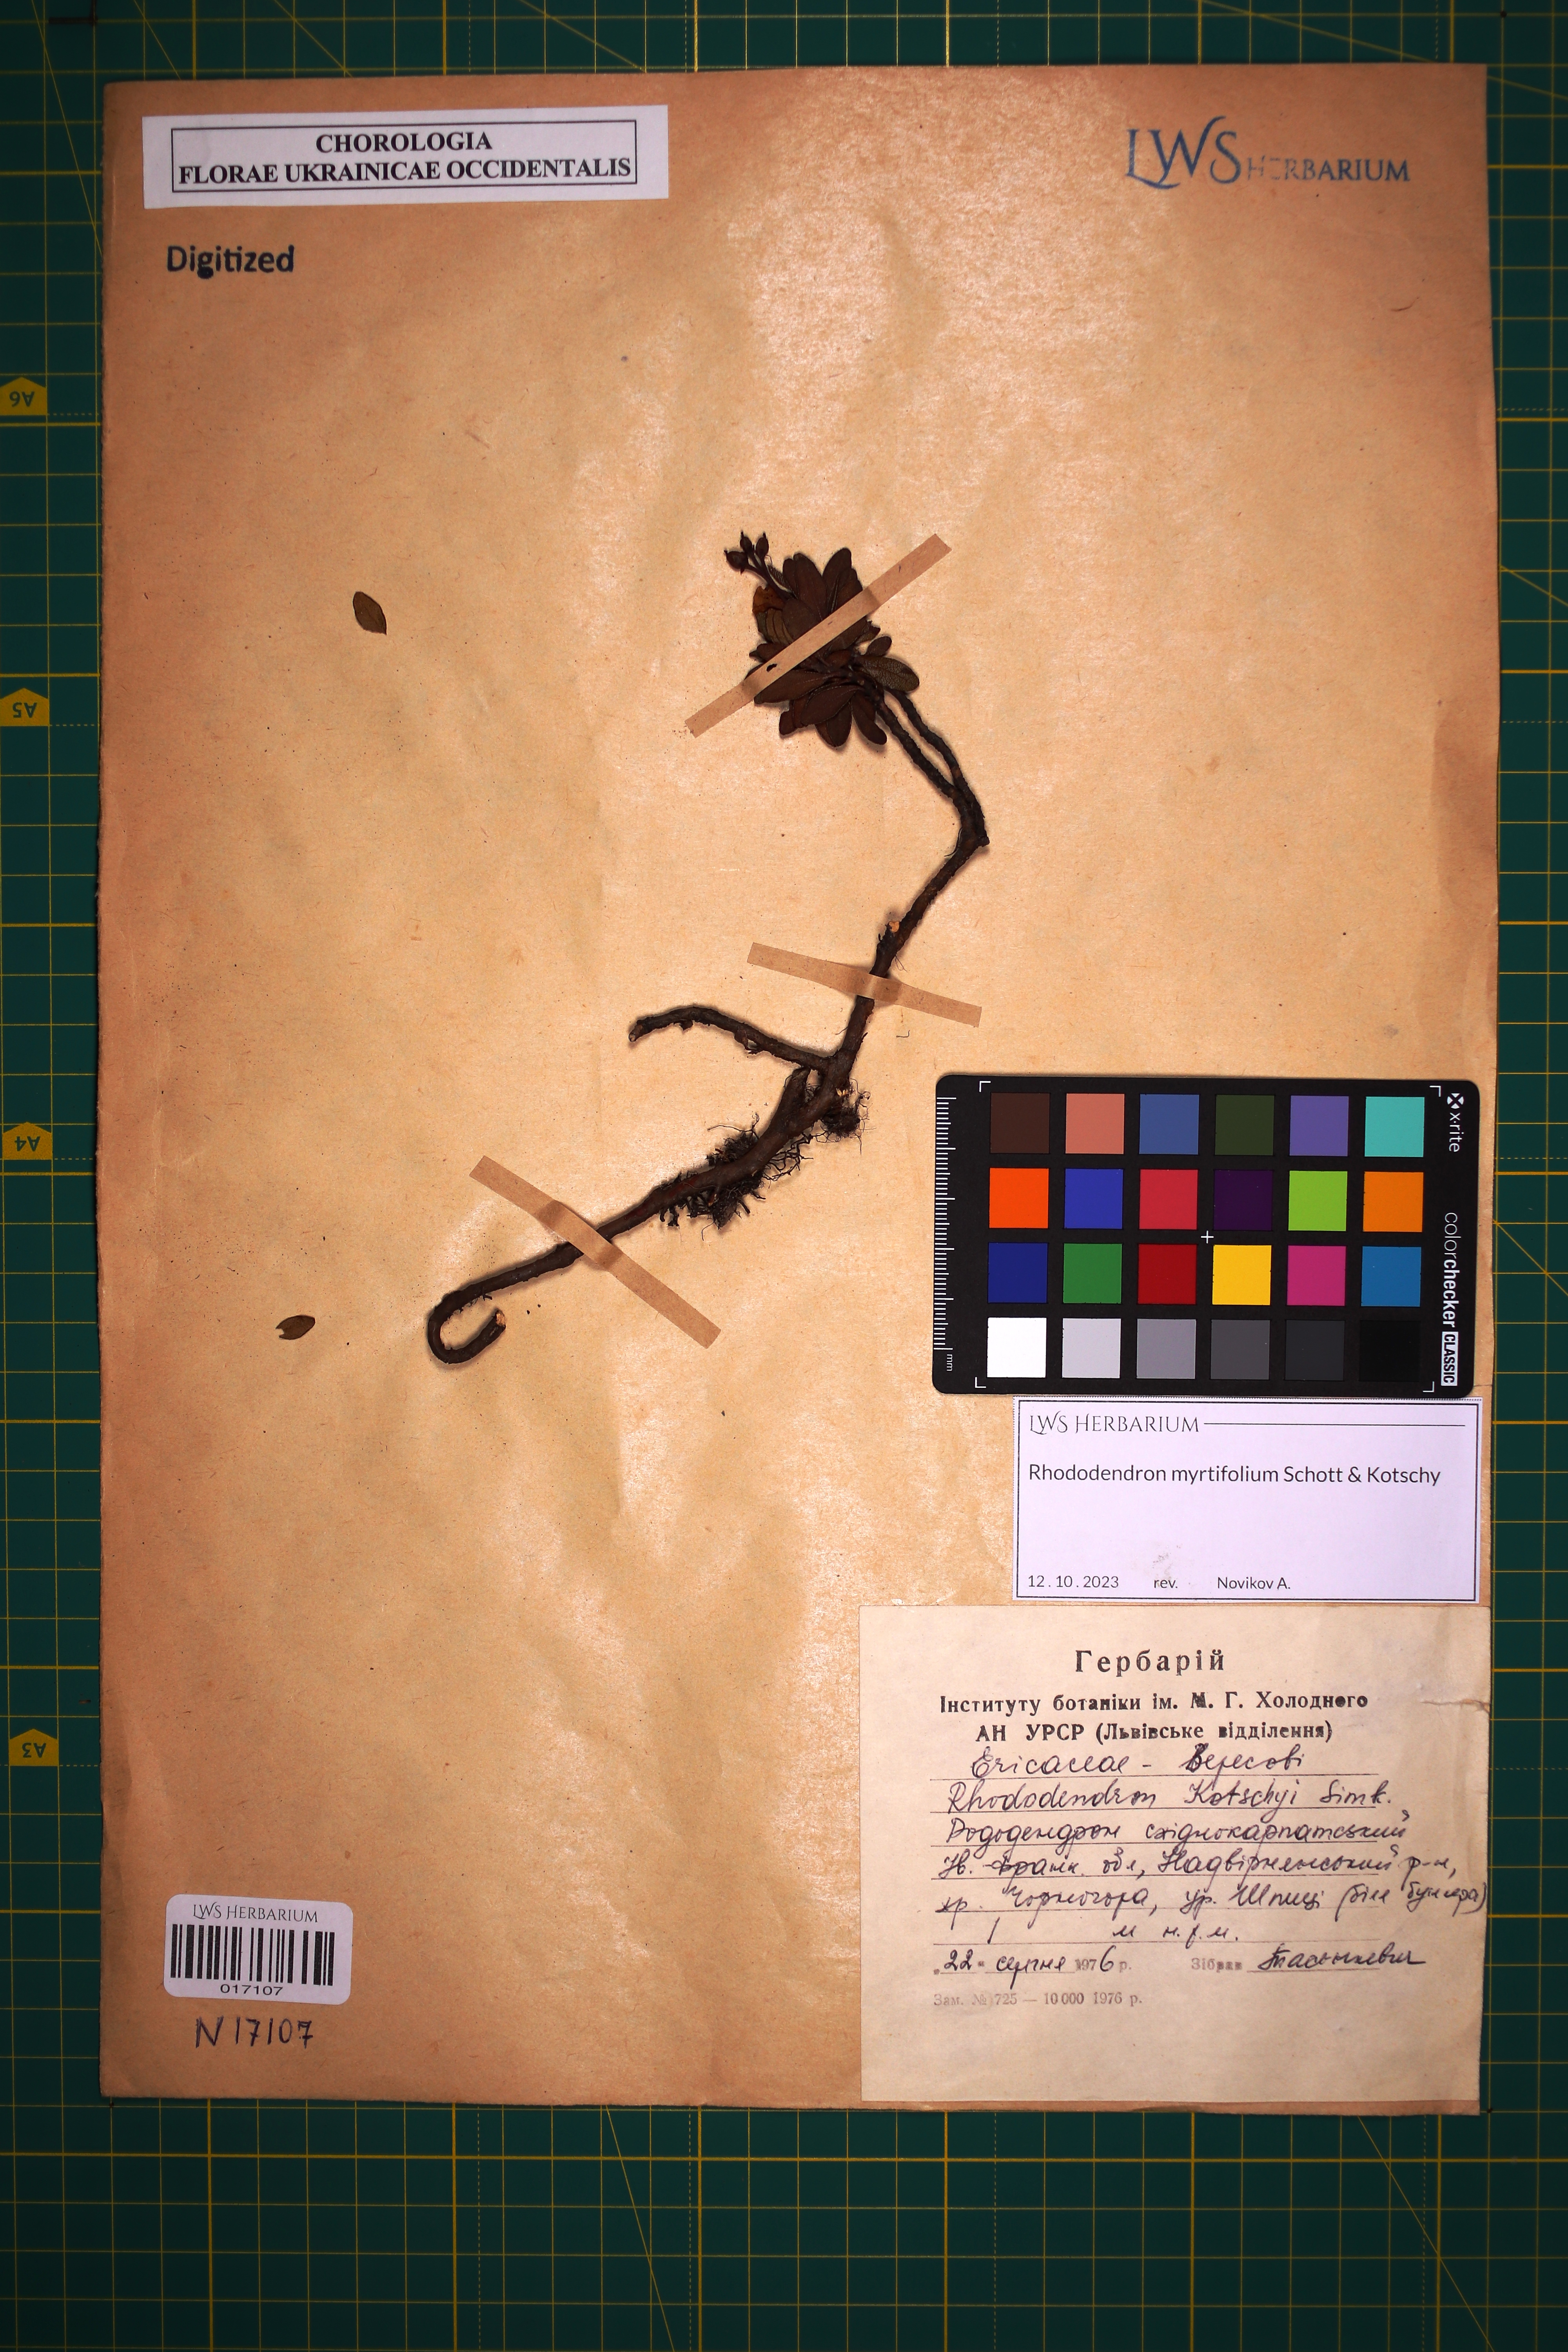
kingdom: Plantae
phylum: Tracheophyta
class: Magnoliopsida
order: Ericales
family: Ericaceae
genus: Rhododendron
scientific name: Rhododendron kotschyi
